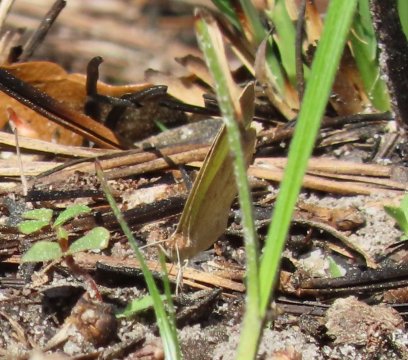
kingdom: Animalia
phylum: Arthropoda
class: Insecta
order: Lepidoptera
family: Pieridae
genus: Eurema
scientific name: Eurema daira
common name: Barred Yellow
